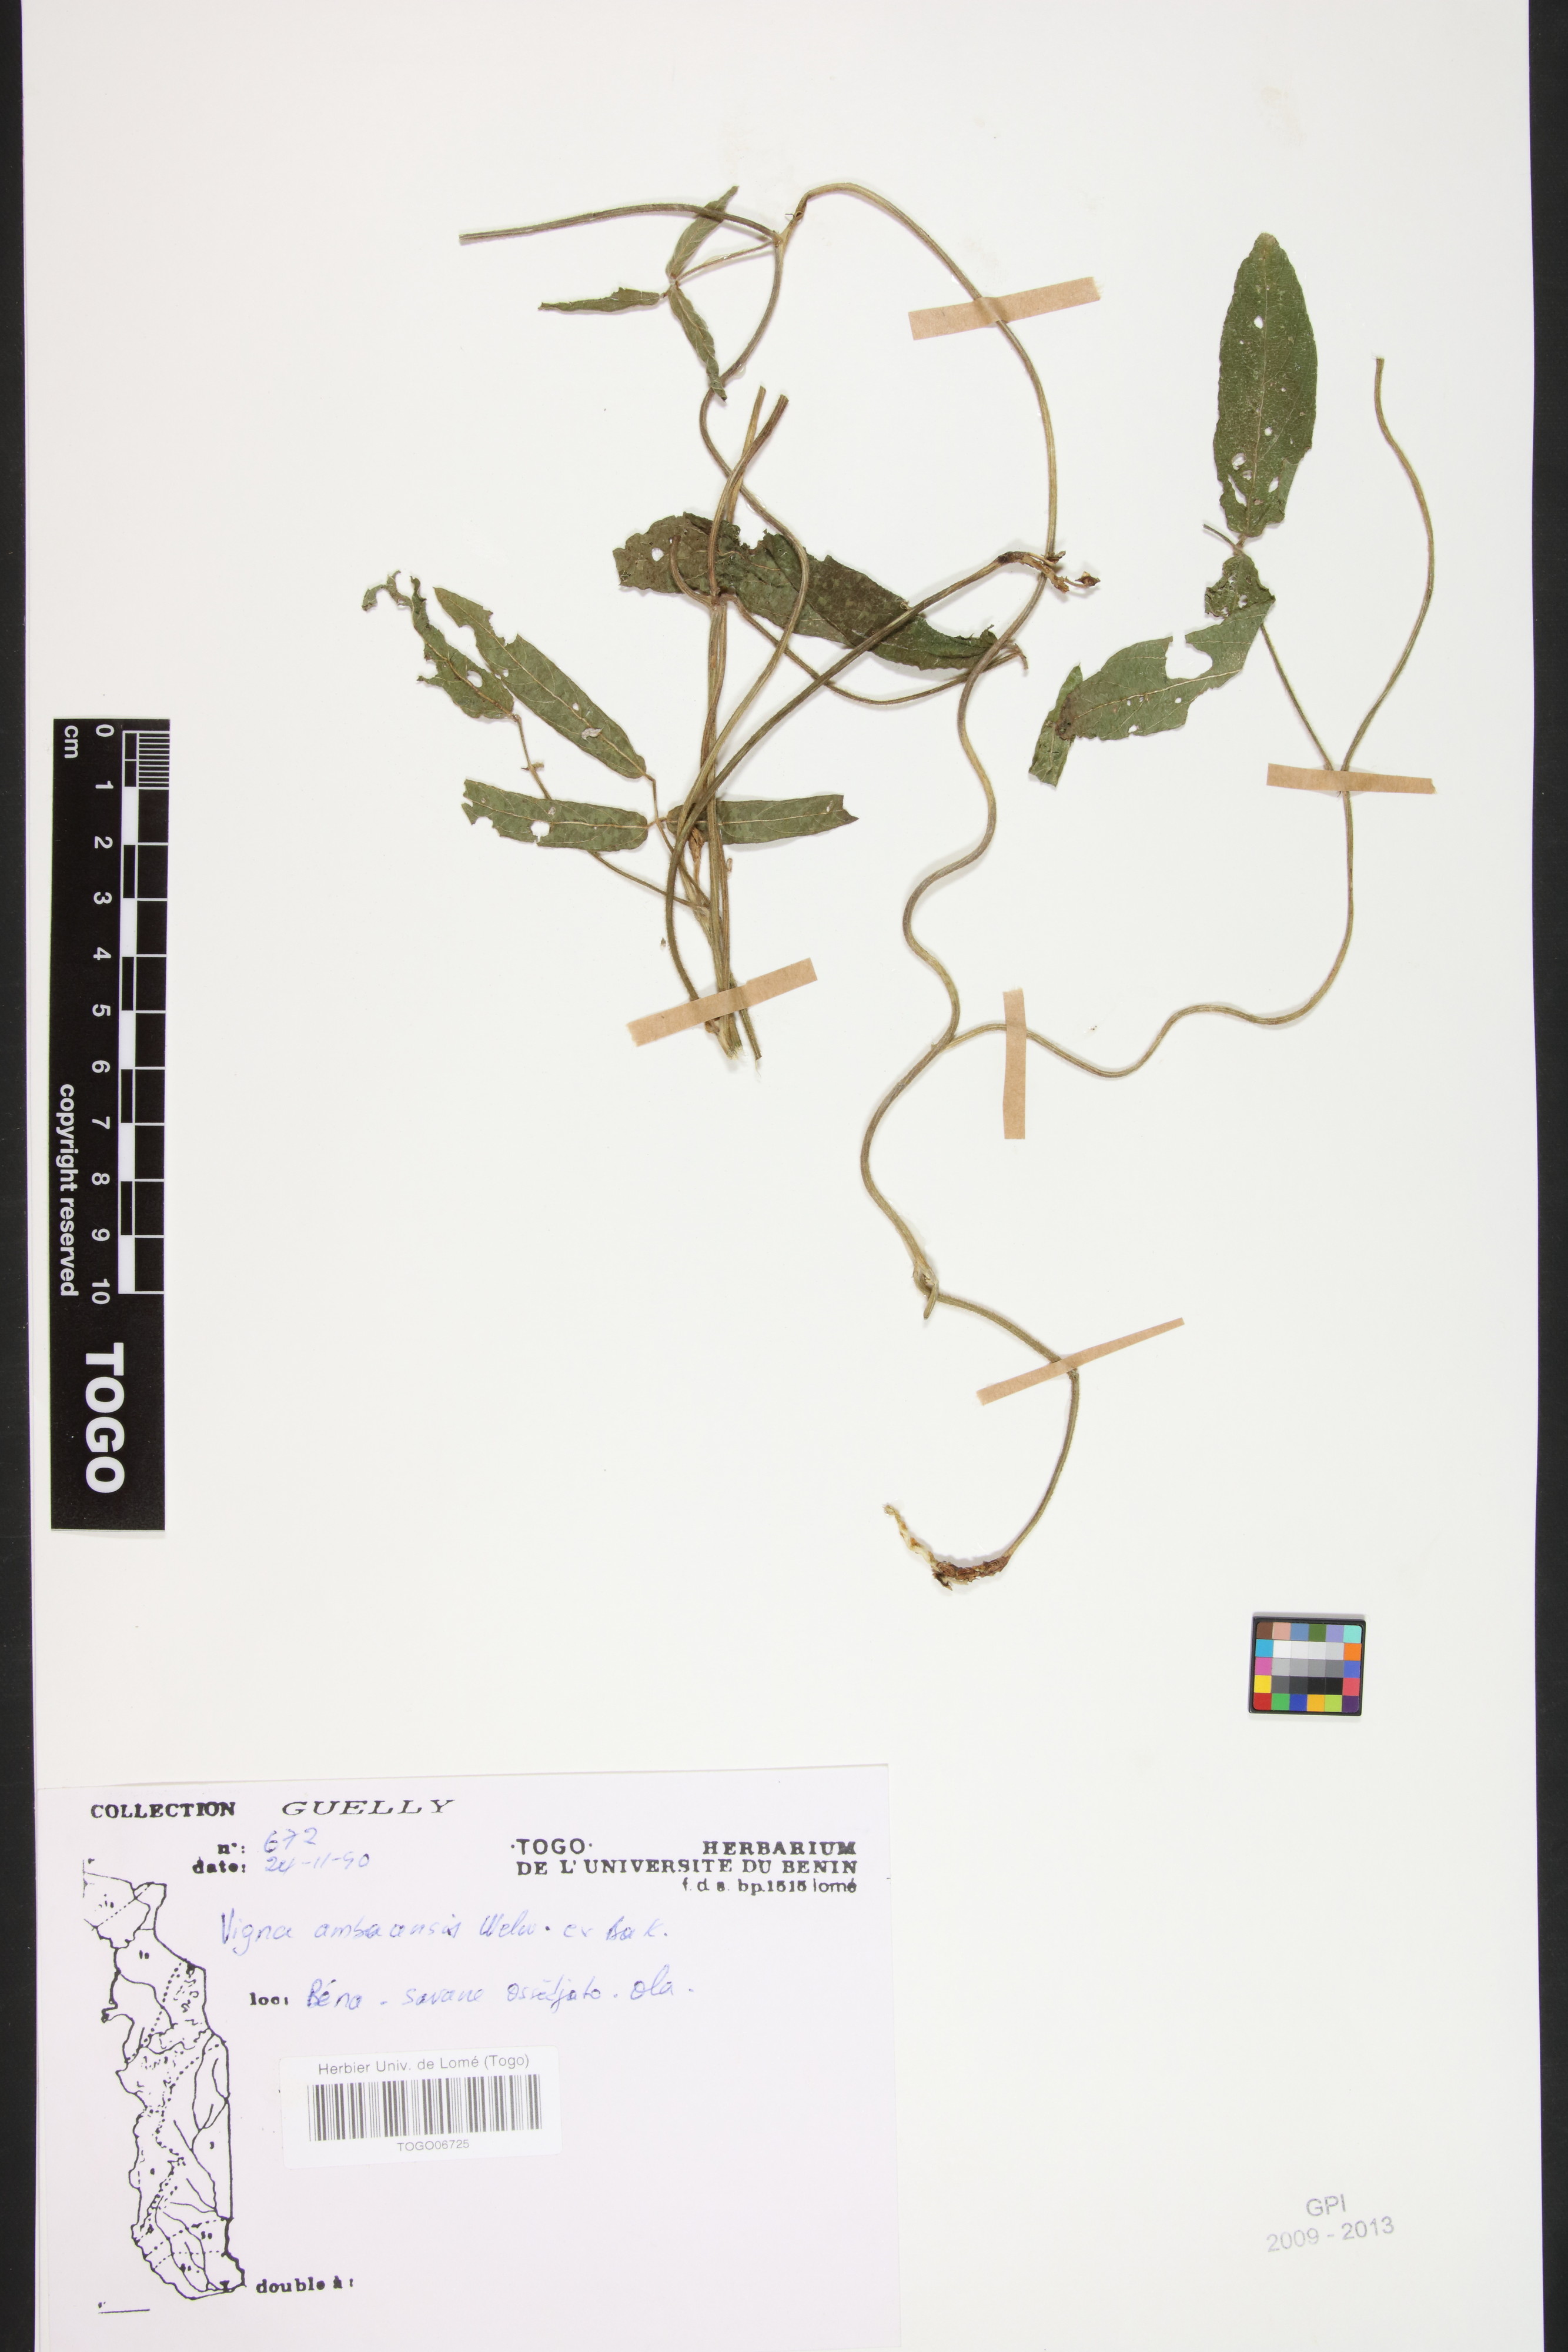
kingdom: Plantae
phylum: Tracheophyta
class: Magnoliopsida
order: Fabales
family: Fabaceae
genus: Vigna
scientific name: Vigna ambacensis
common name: Tsarkiyan zomo
